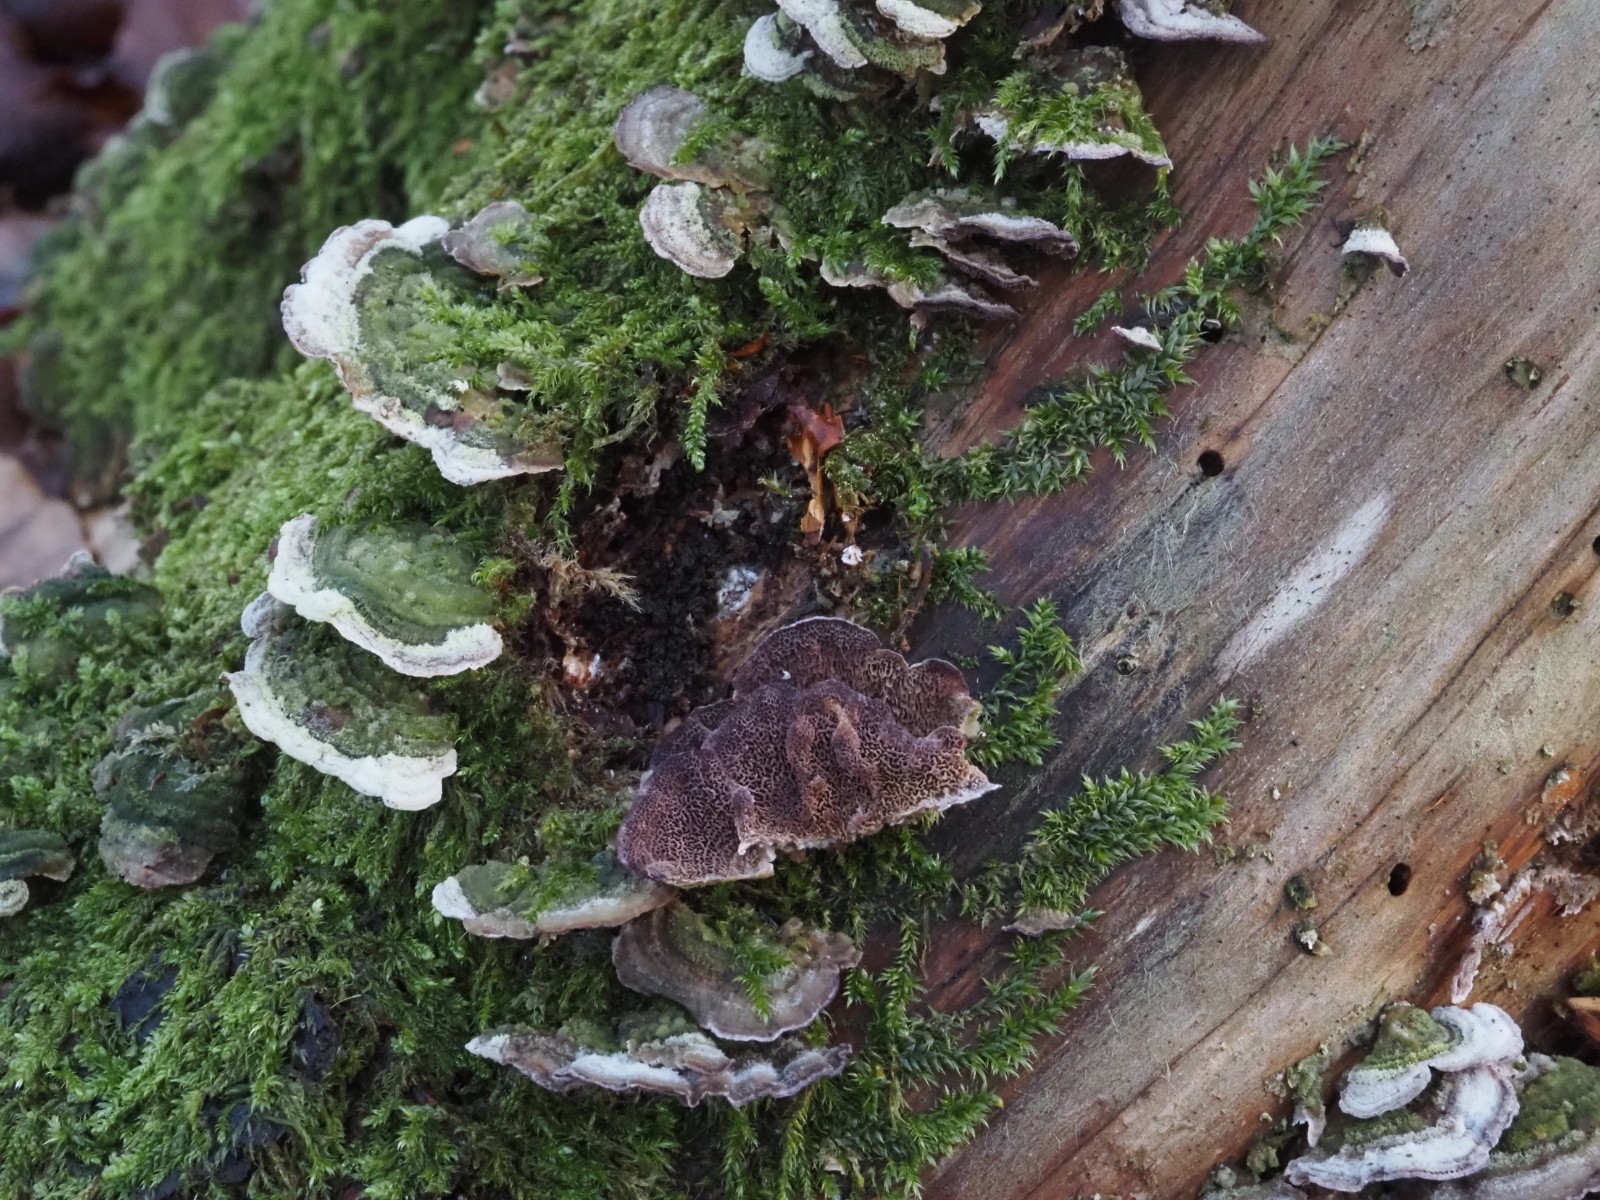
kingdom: Fungi
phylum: Basidiomycota
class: Agaricomycetes
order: Hymenochaetales
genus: Trichaptum
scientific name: Trichaptum abietinum
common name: almindelig violporesvamp
